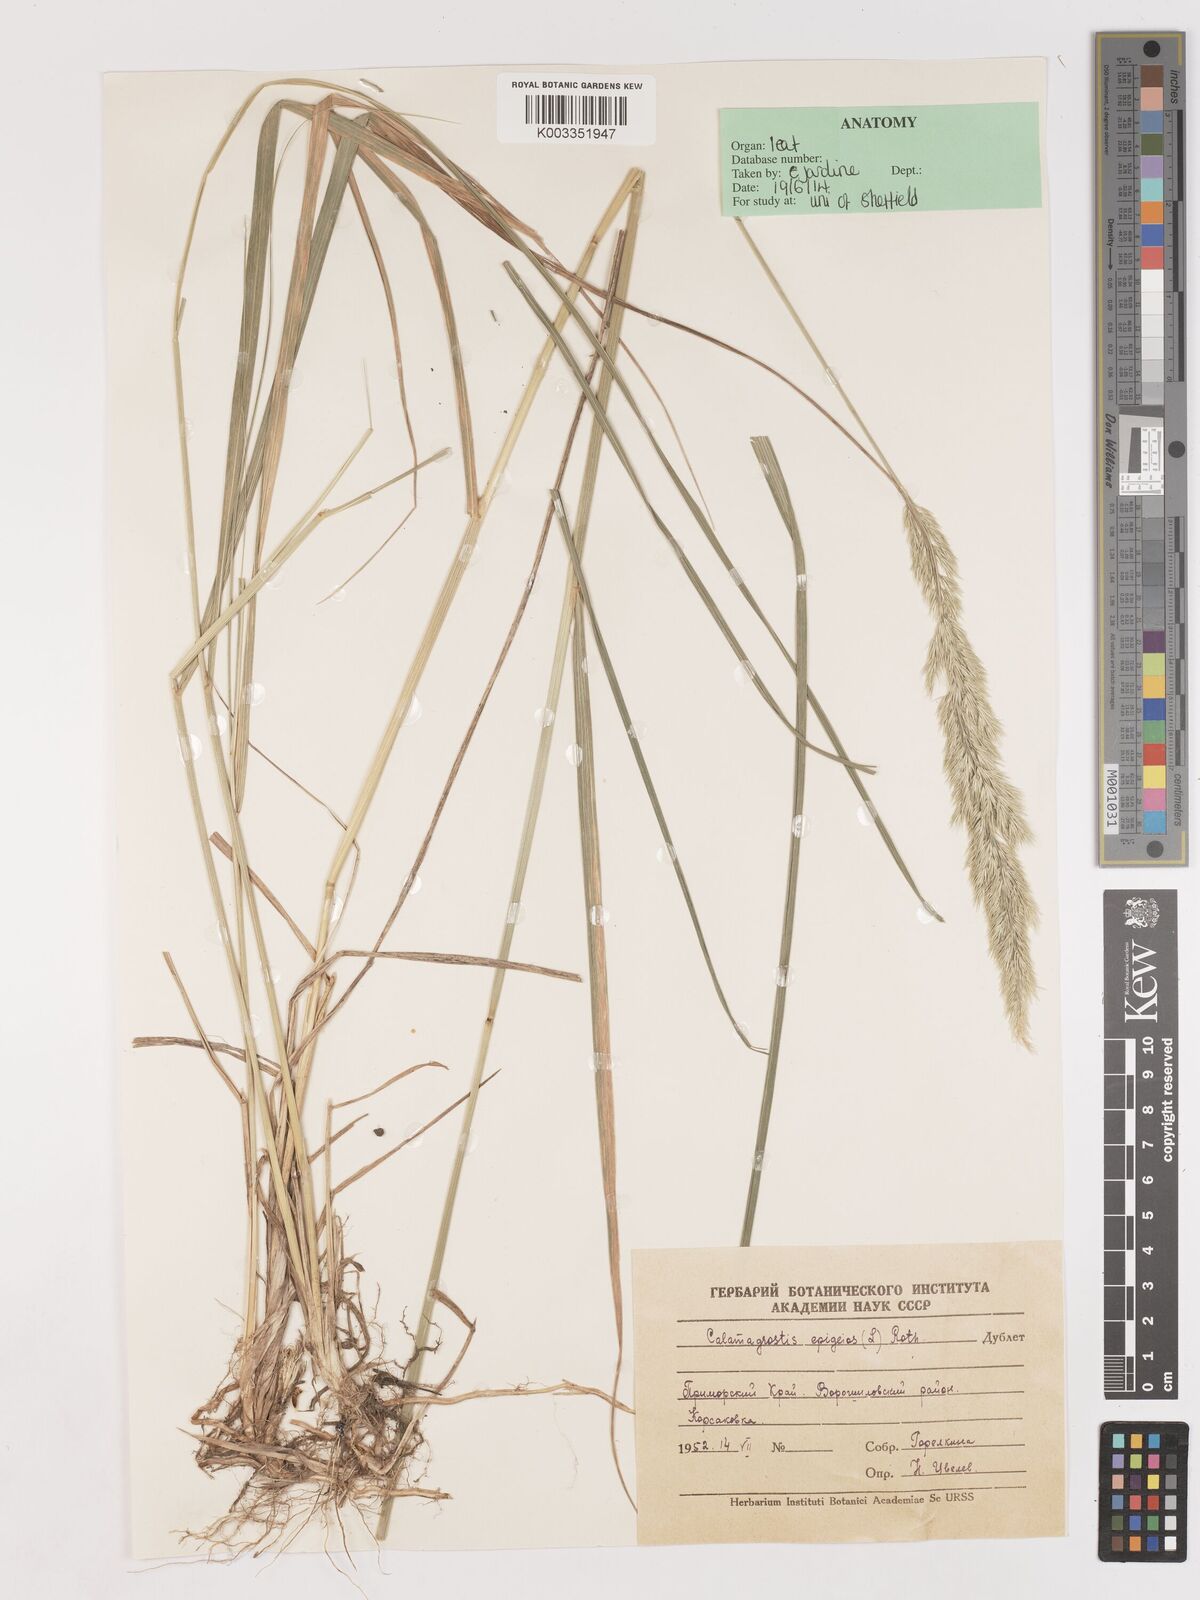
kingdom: Plantae
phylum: Tracheophyta
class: Liliopsida
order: Poales
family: Poaceae
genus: Calamagrostis
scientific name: Calamagrostis epigejos
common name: Wood small-reed
